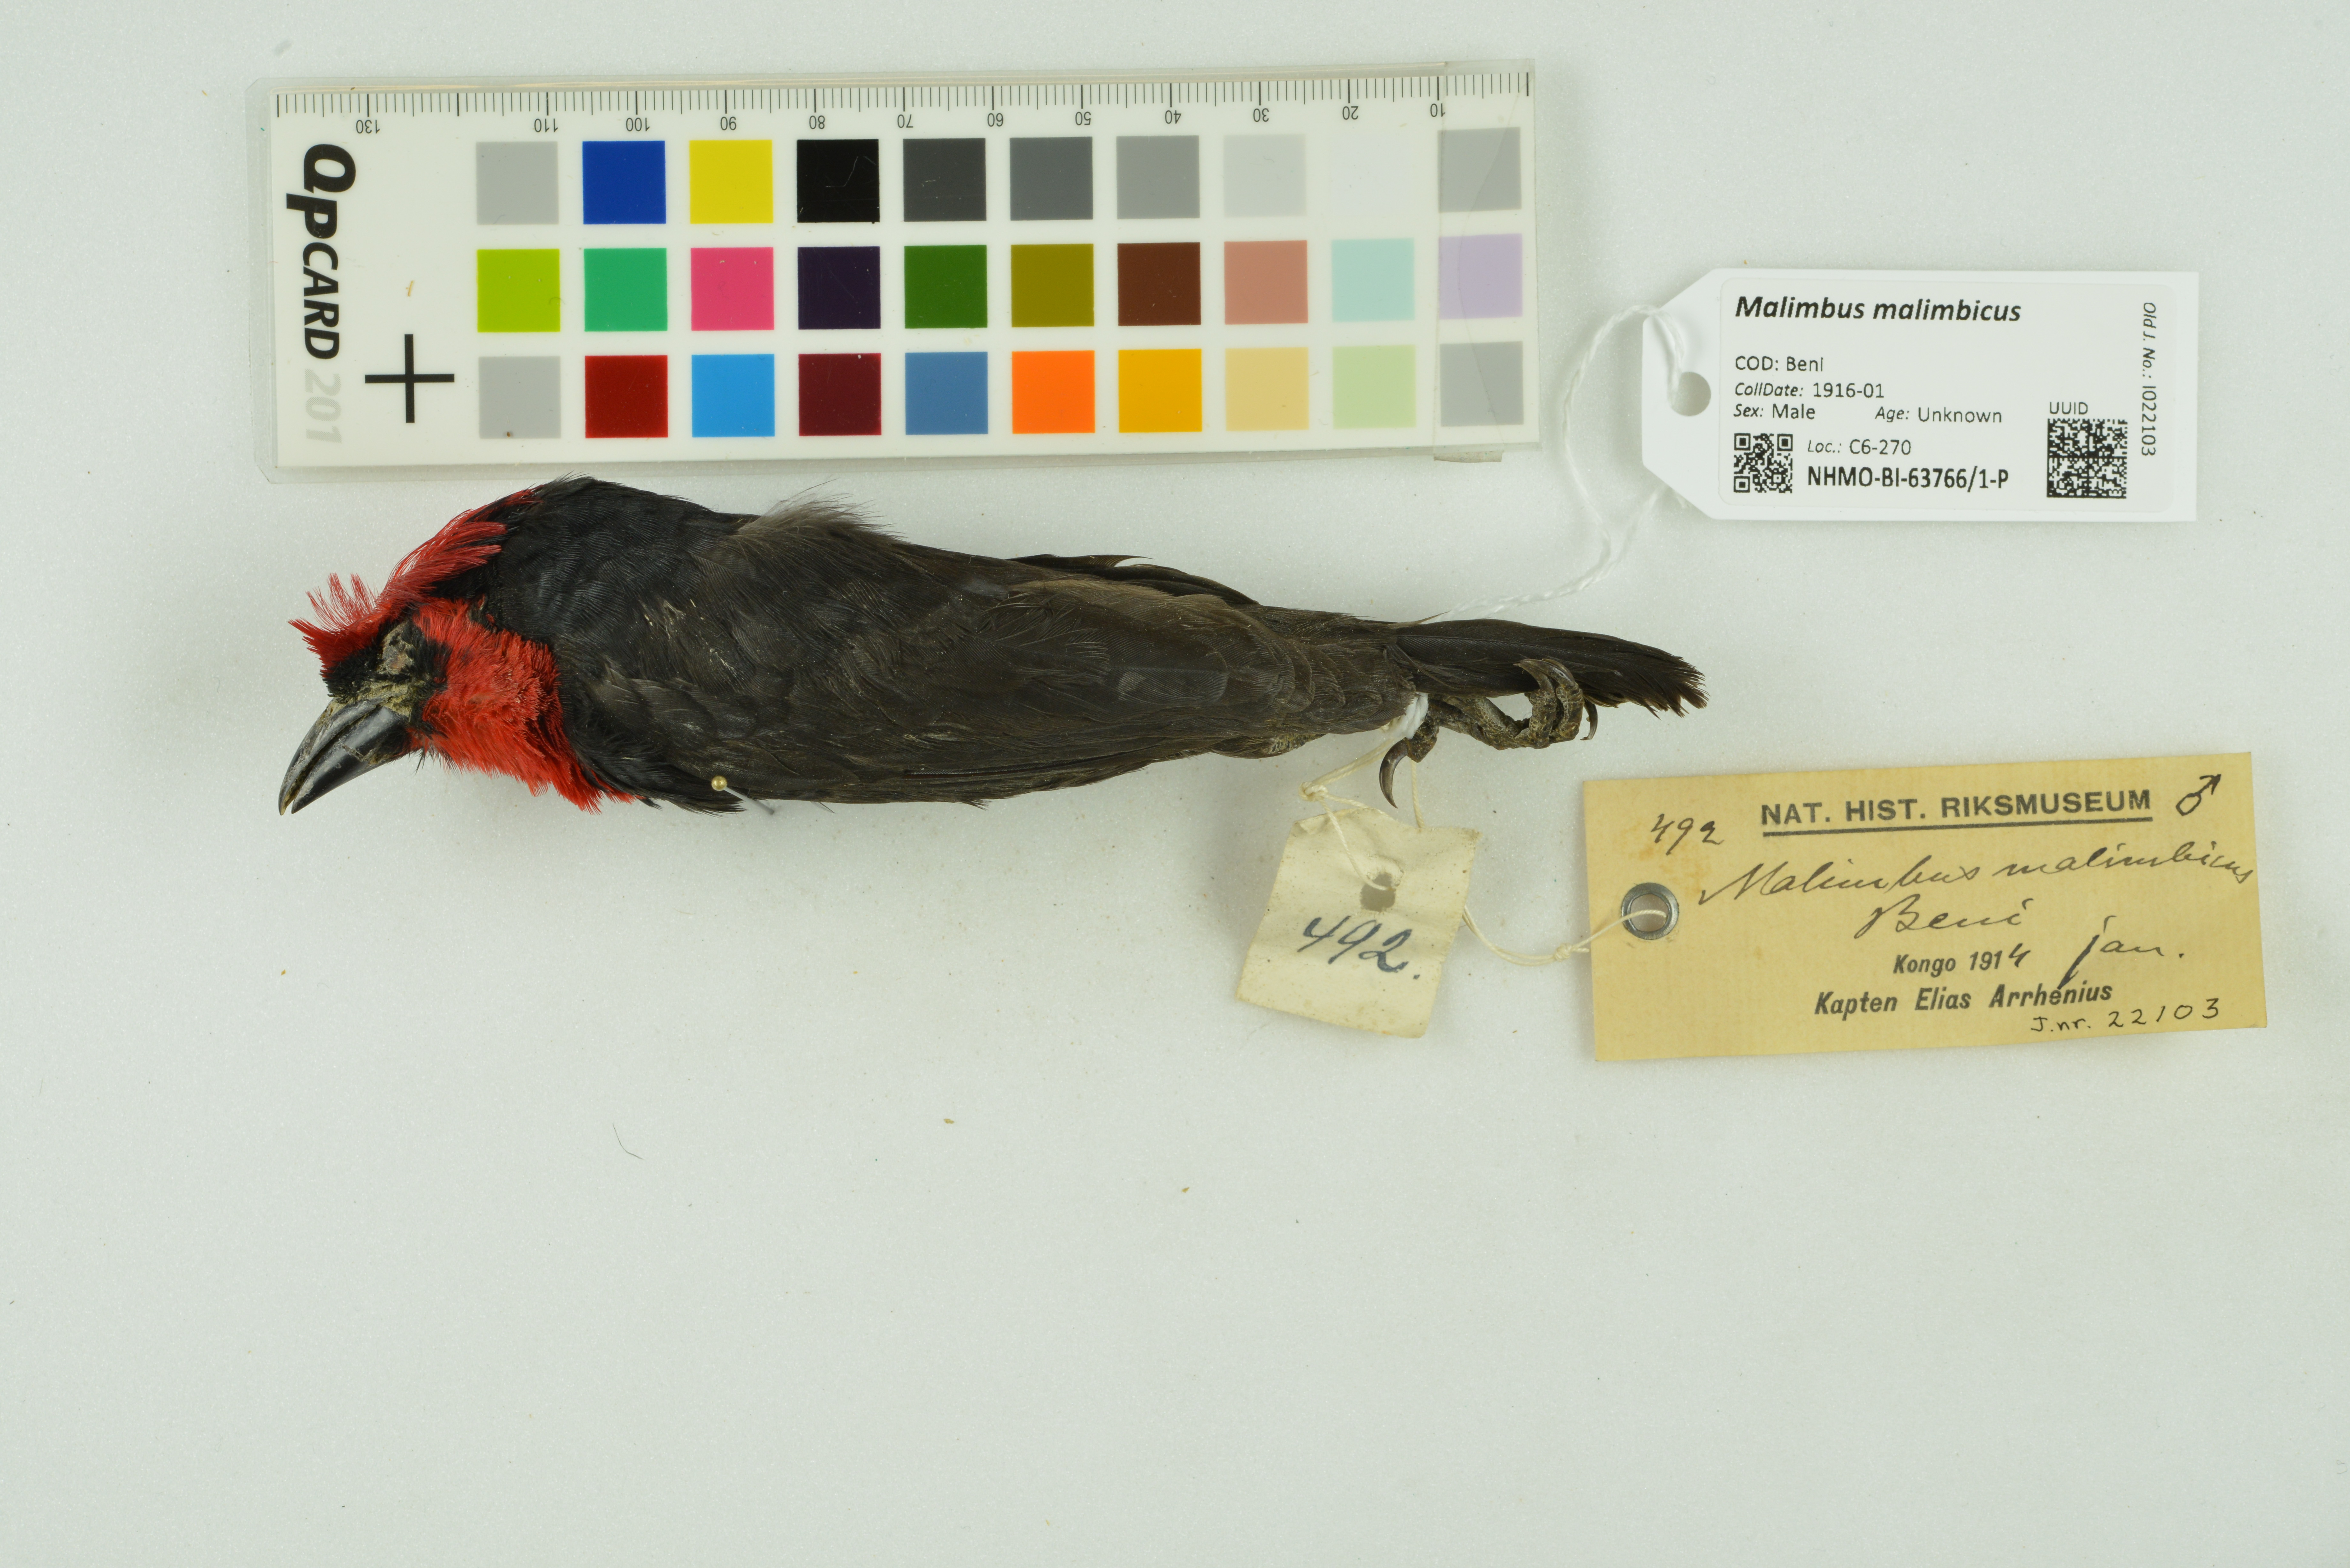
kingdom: Animalia
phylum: Chordata
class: Aves
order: Passeriformes
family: Ploceidae
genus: Malimbus
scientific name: Malimbus malimbicus
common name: Crested malimbe
